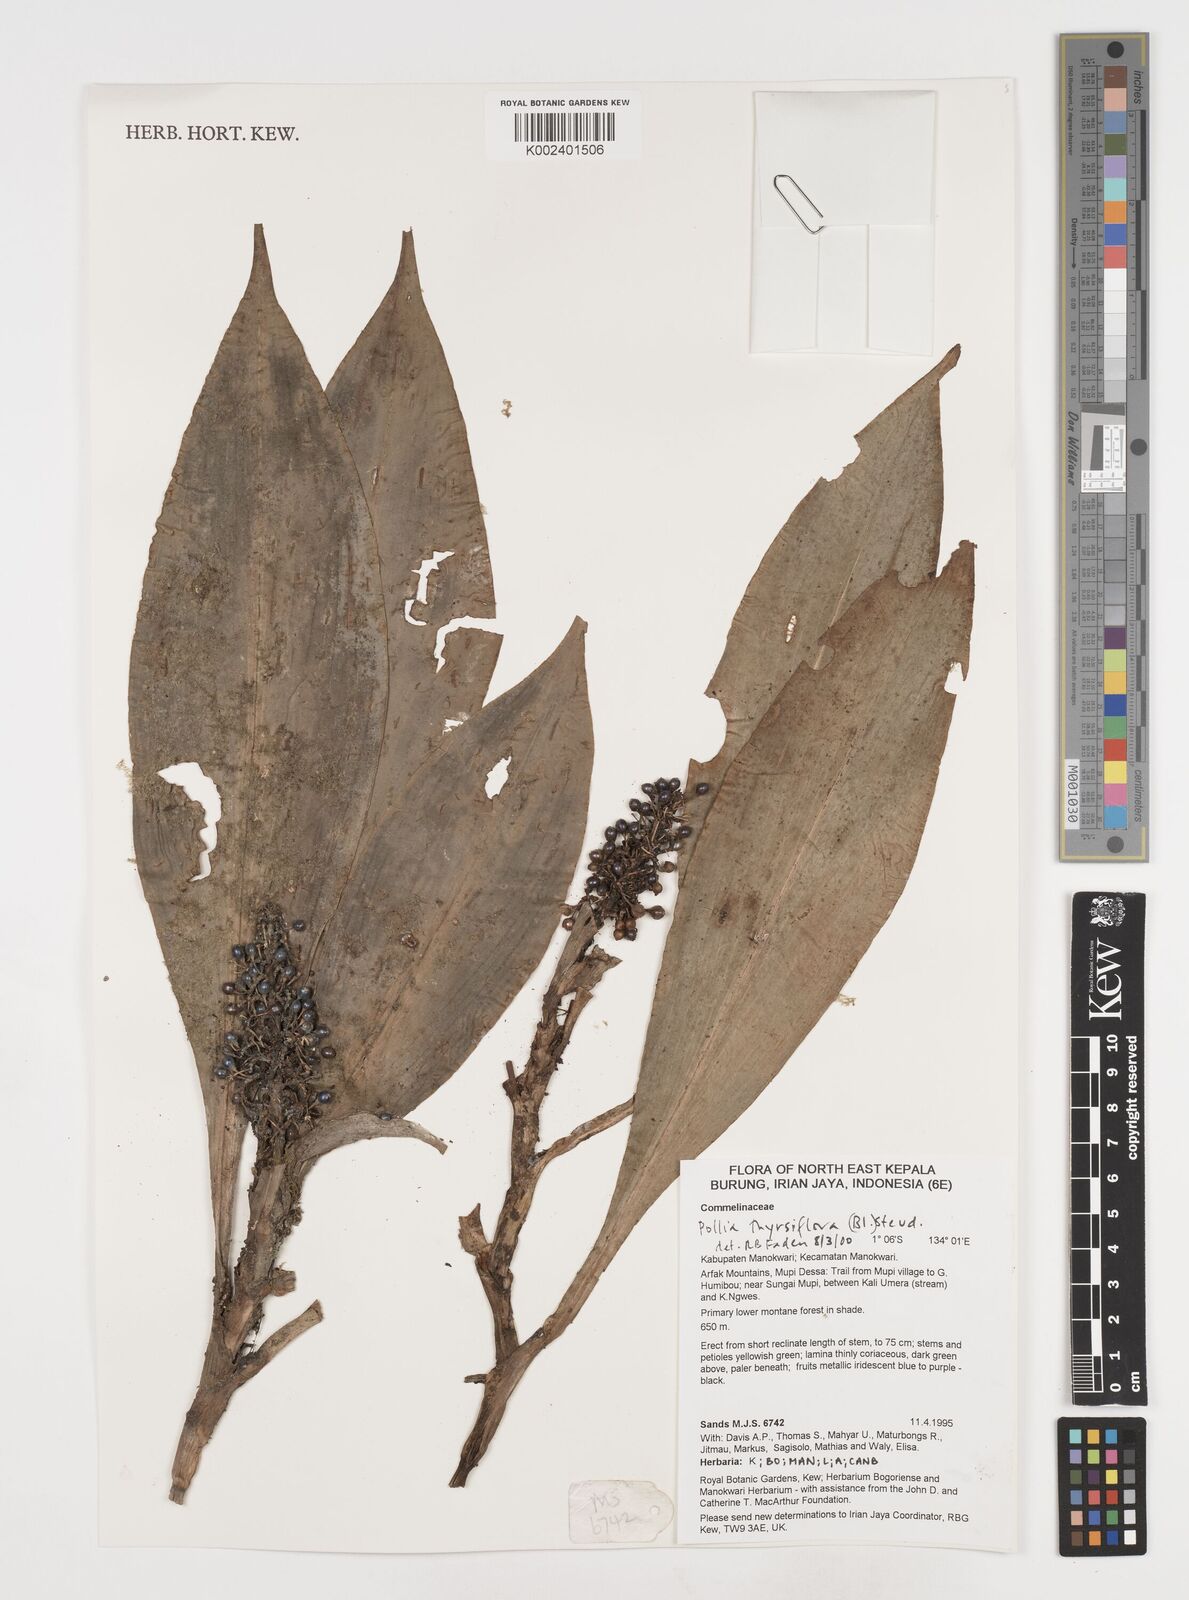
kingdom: Plantae
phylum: Tracheophyta
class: Liliopsida
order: Commelinales
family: Commelinaceae
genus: Pollia
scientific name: Pollia thyrsiflora
